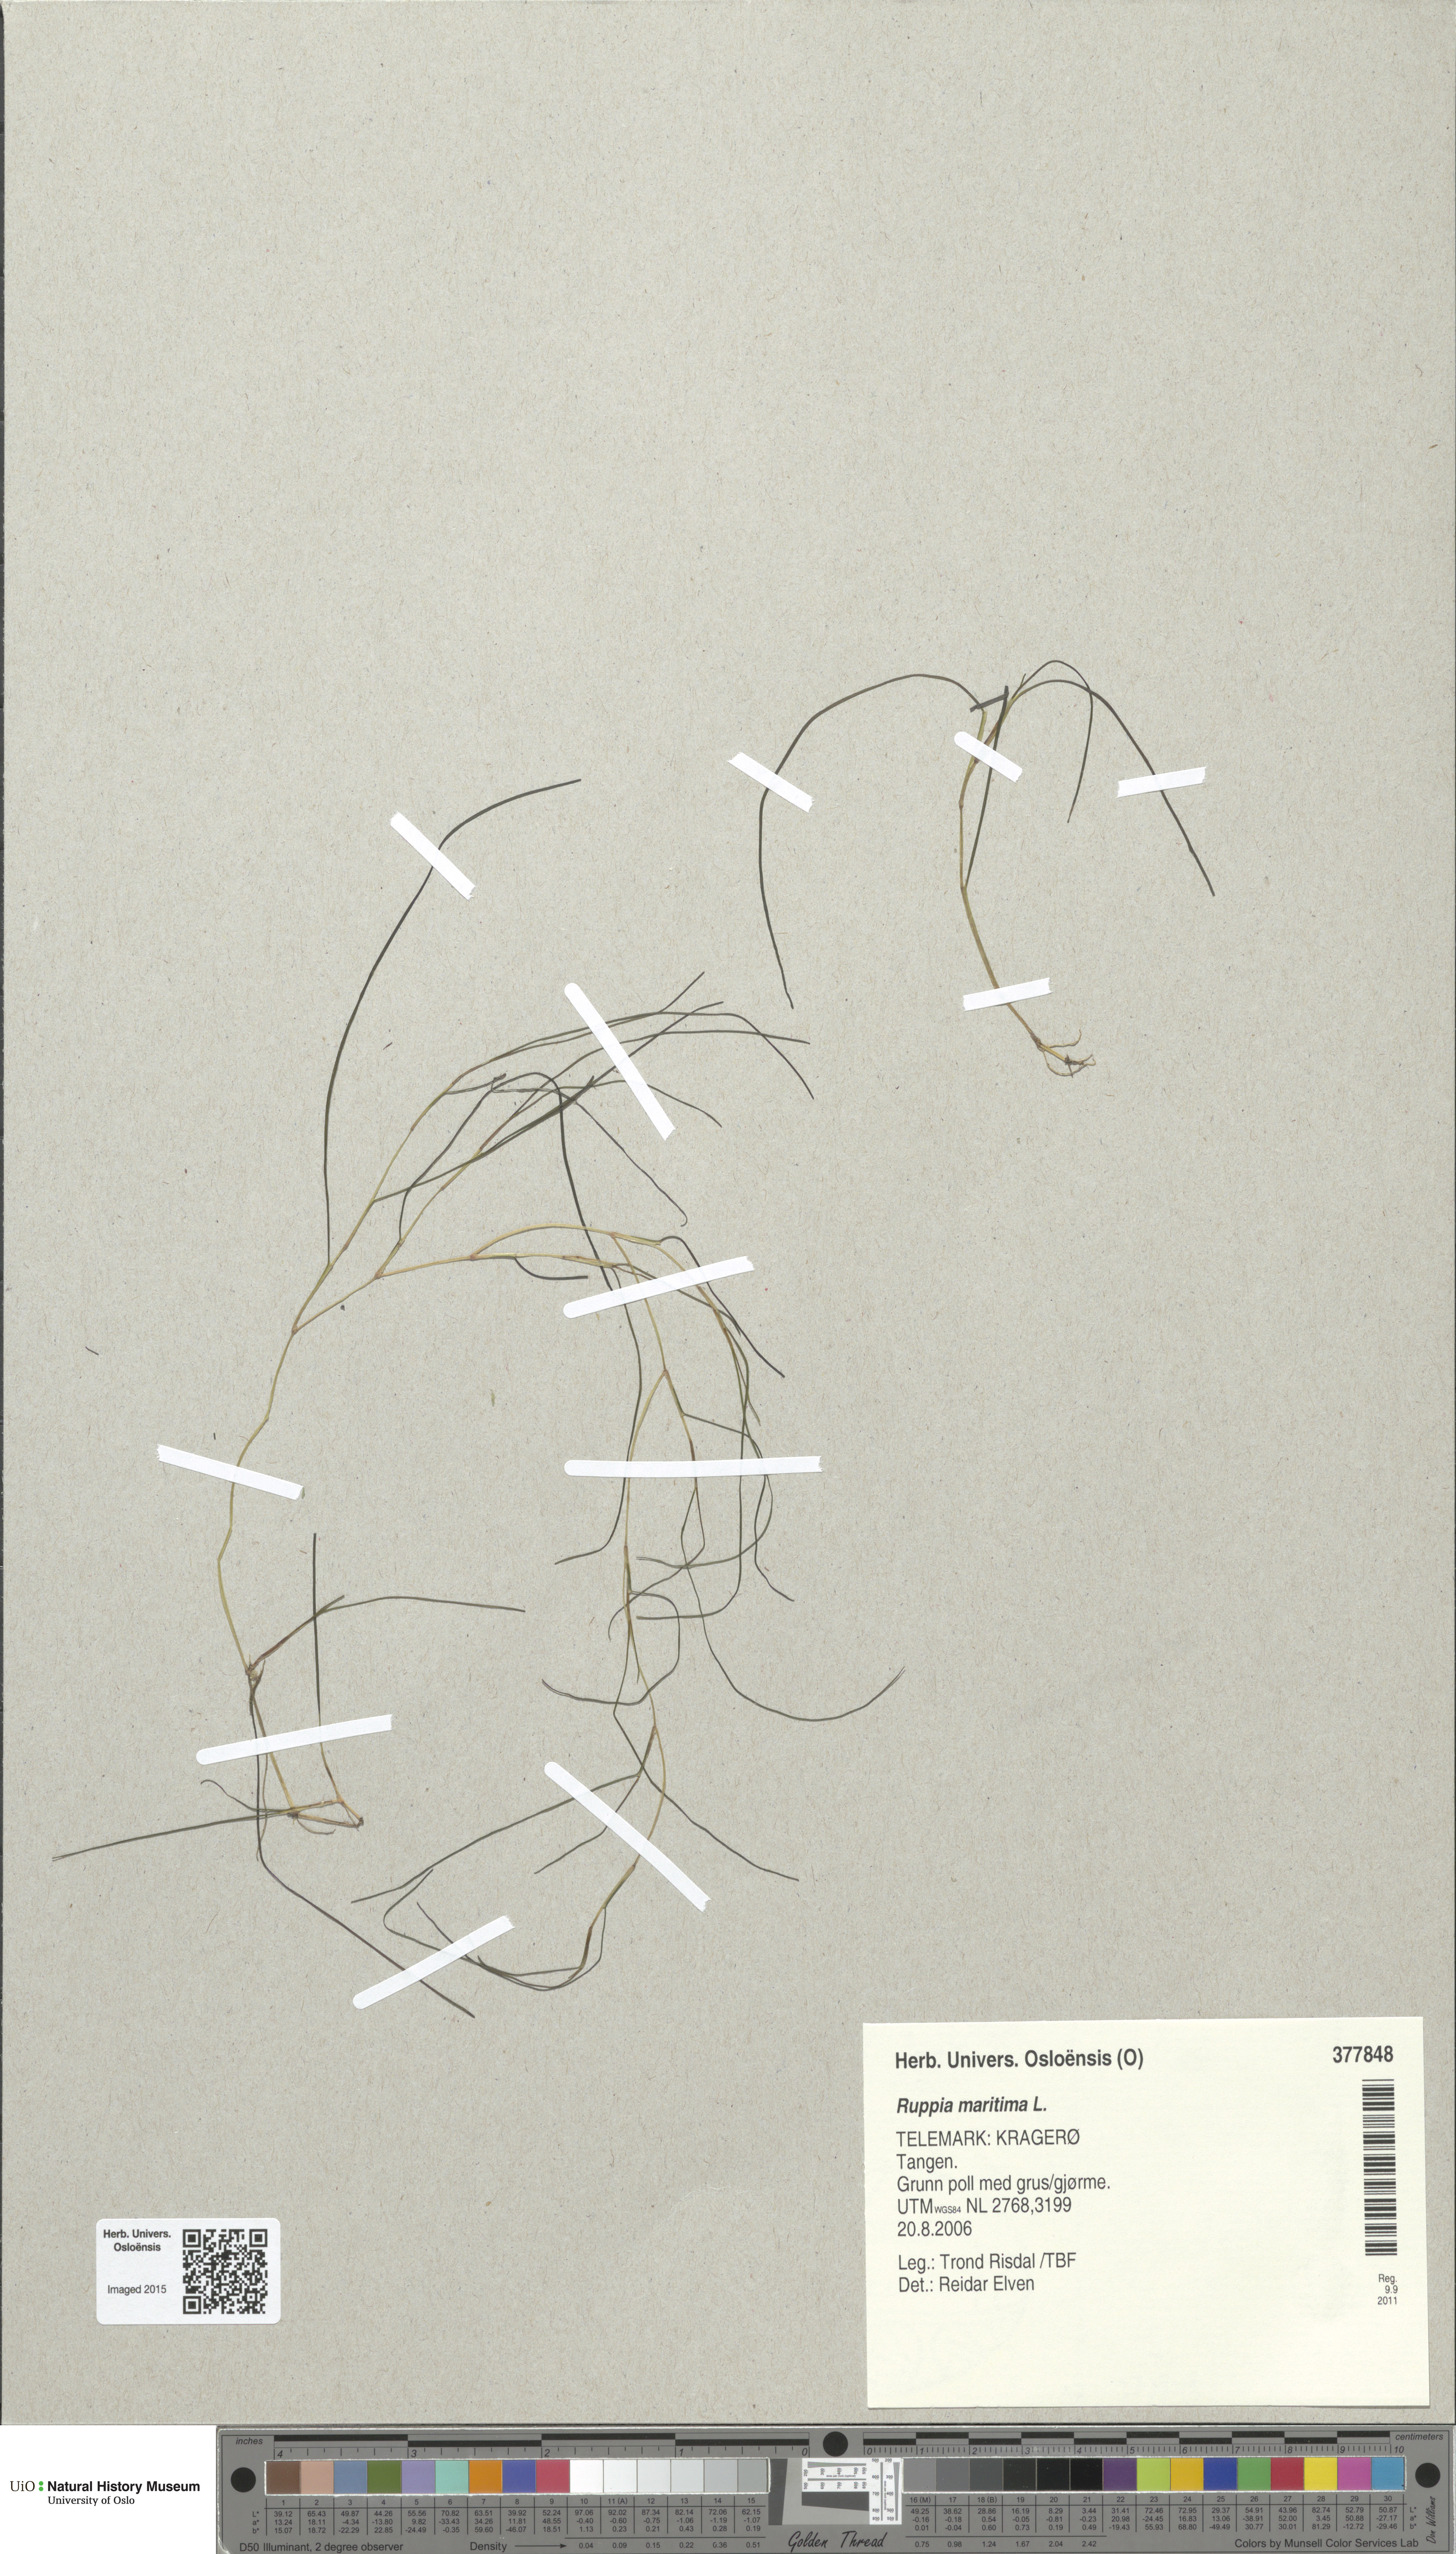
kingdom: Plantae
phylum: Tracheophyta
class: Liliopsida
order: Alismatales
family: Ruppiaceae
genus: Ruppia
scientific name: Ruppia maritima
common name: Beaked tasselweed
